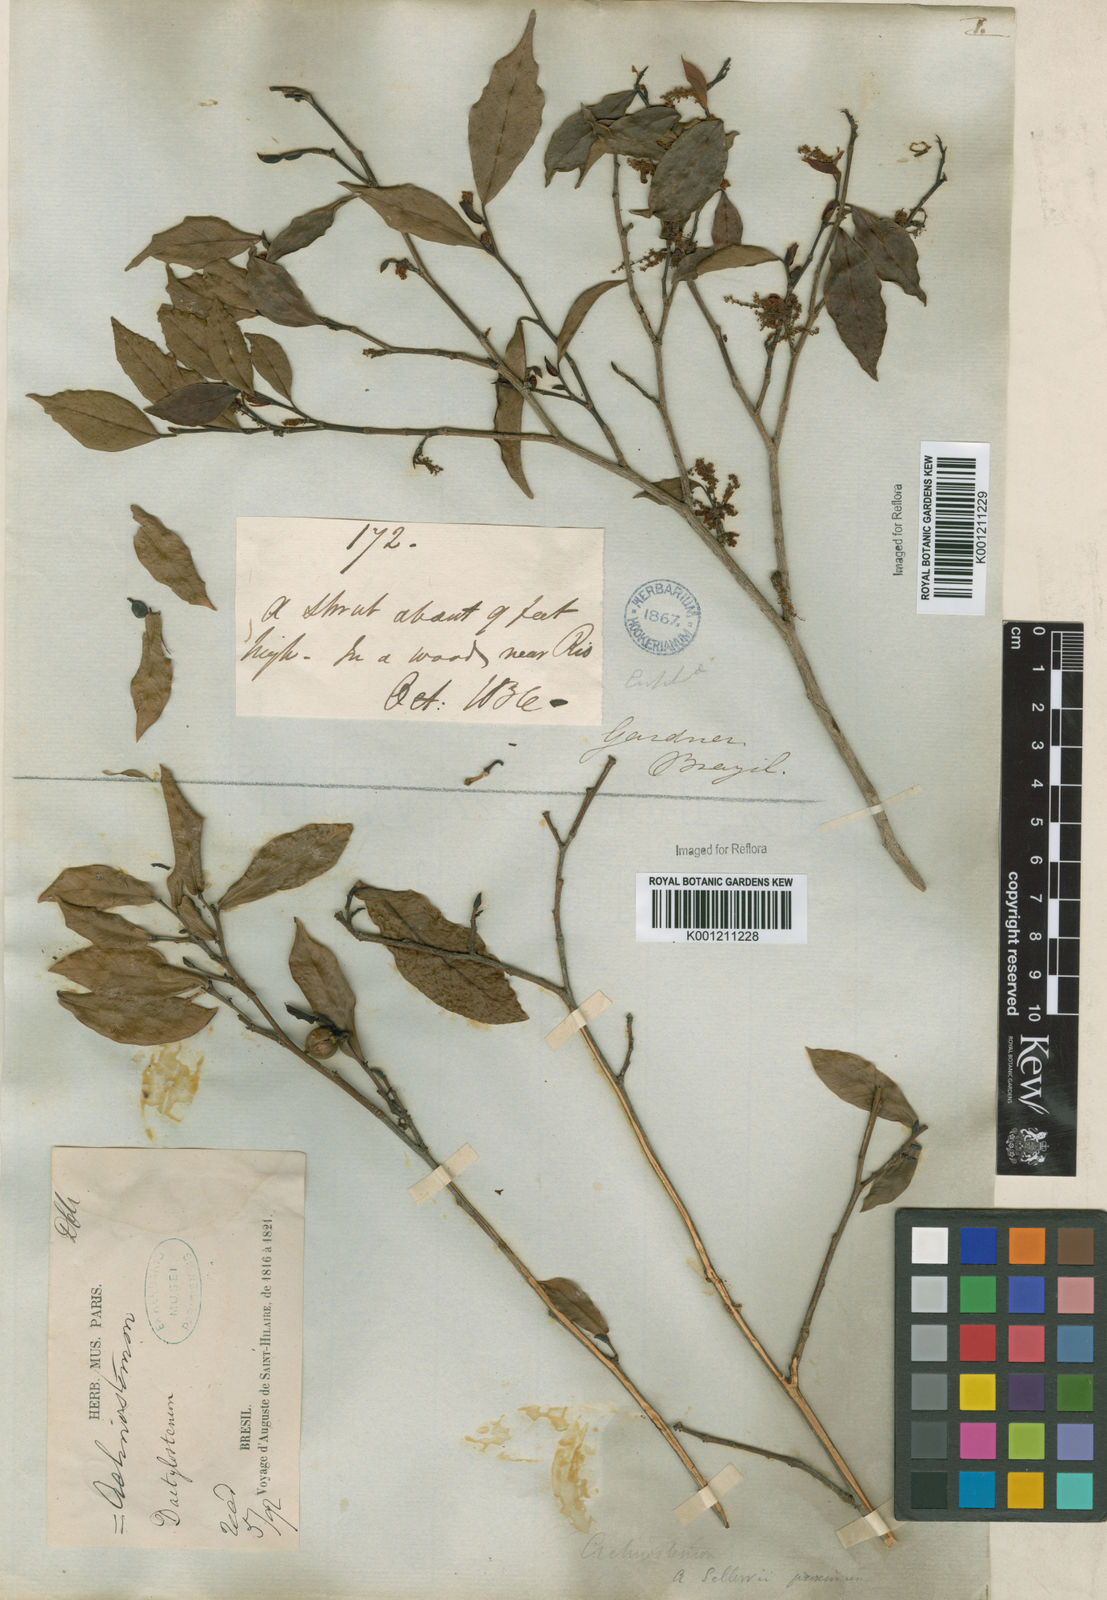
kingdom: Plantae
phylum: Tracheophyta
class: Magnoliopsida
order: Malpighiales
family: Euphorbiaceae
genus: Actinostemon
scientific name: Actinostemon
